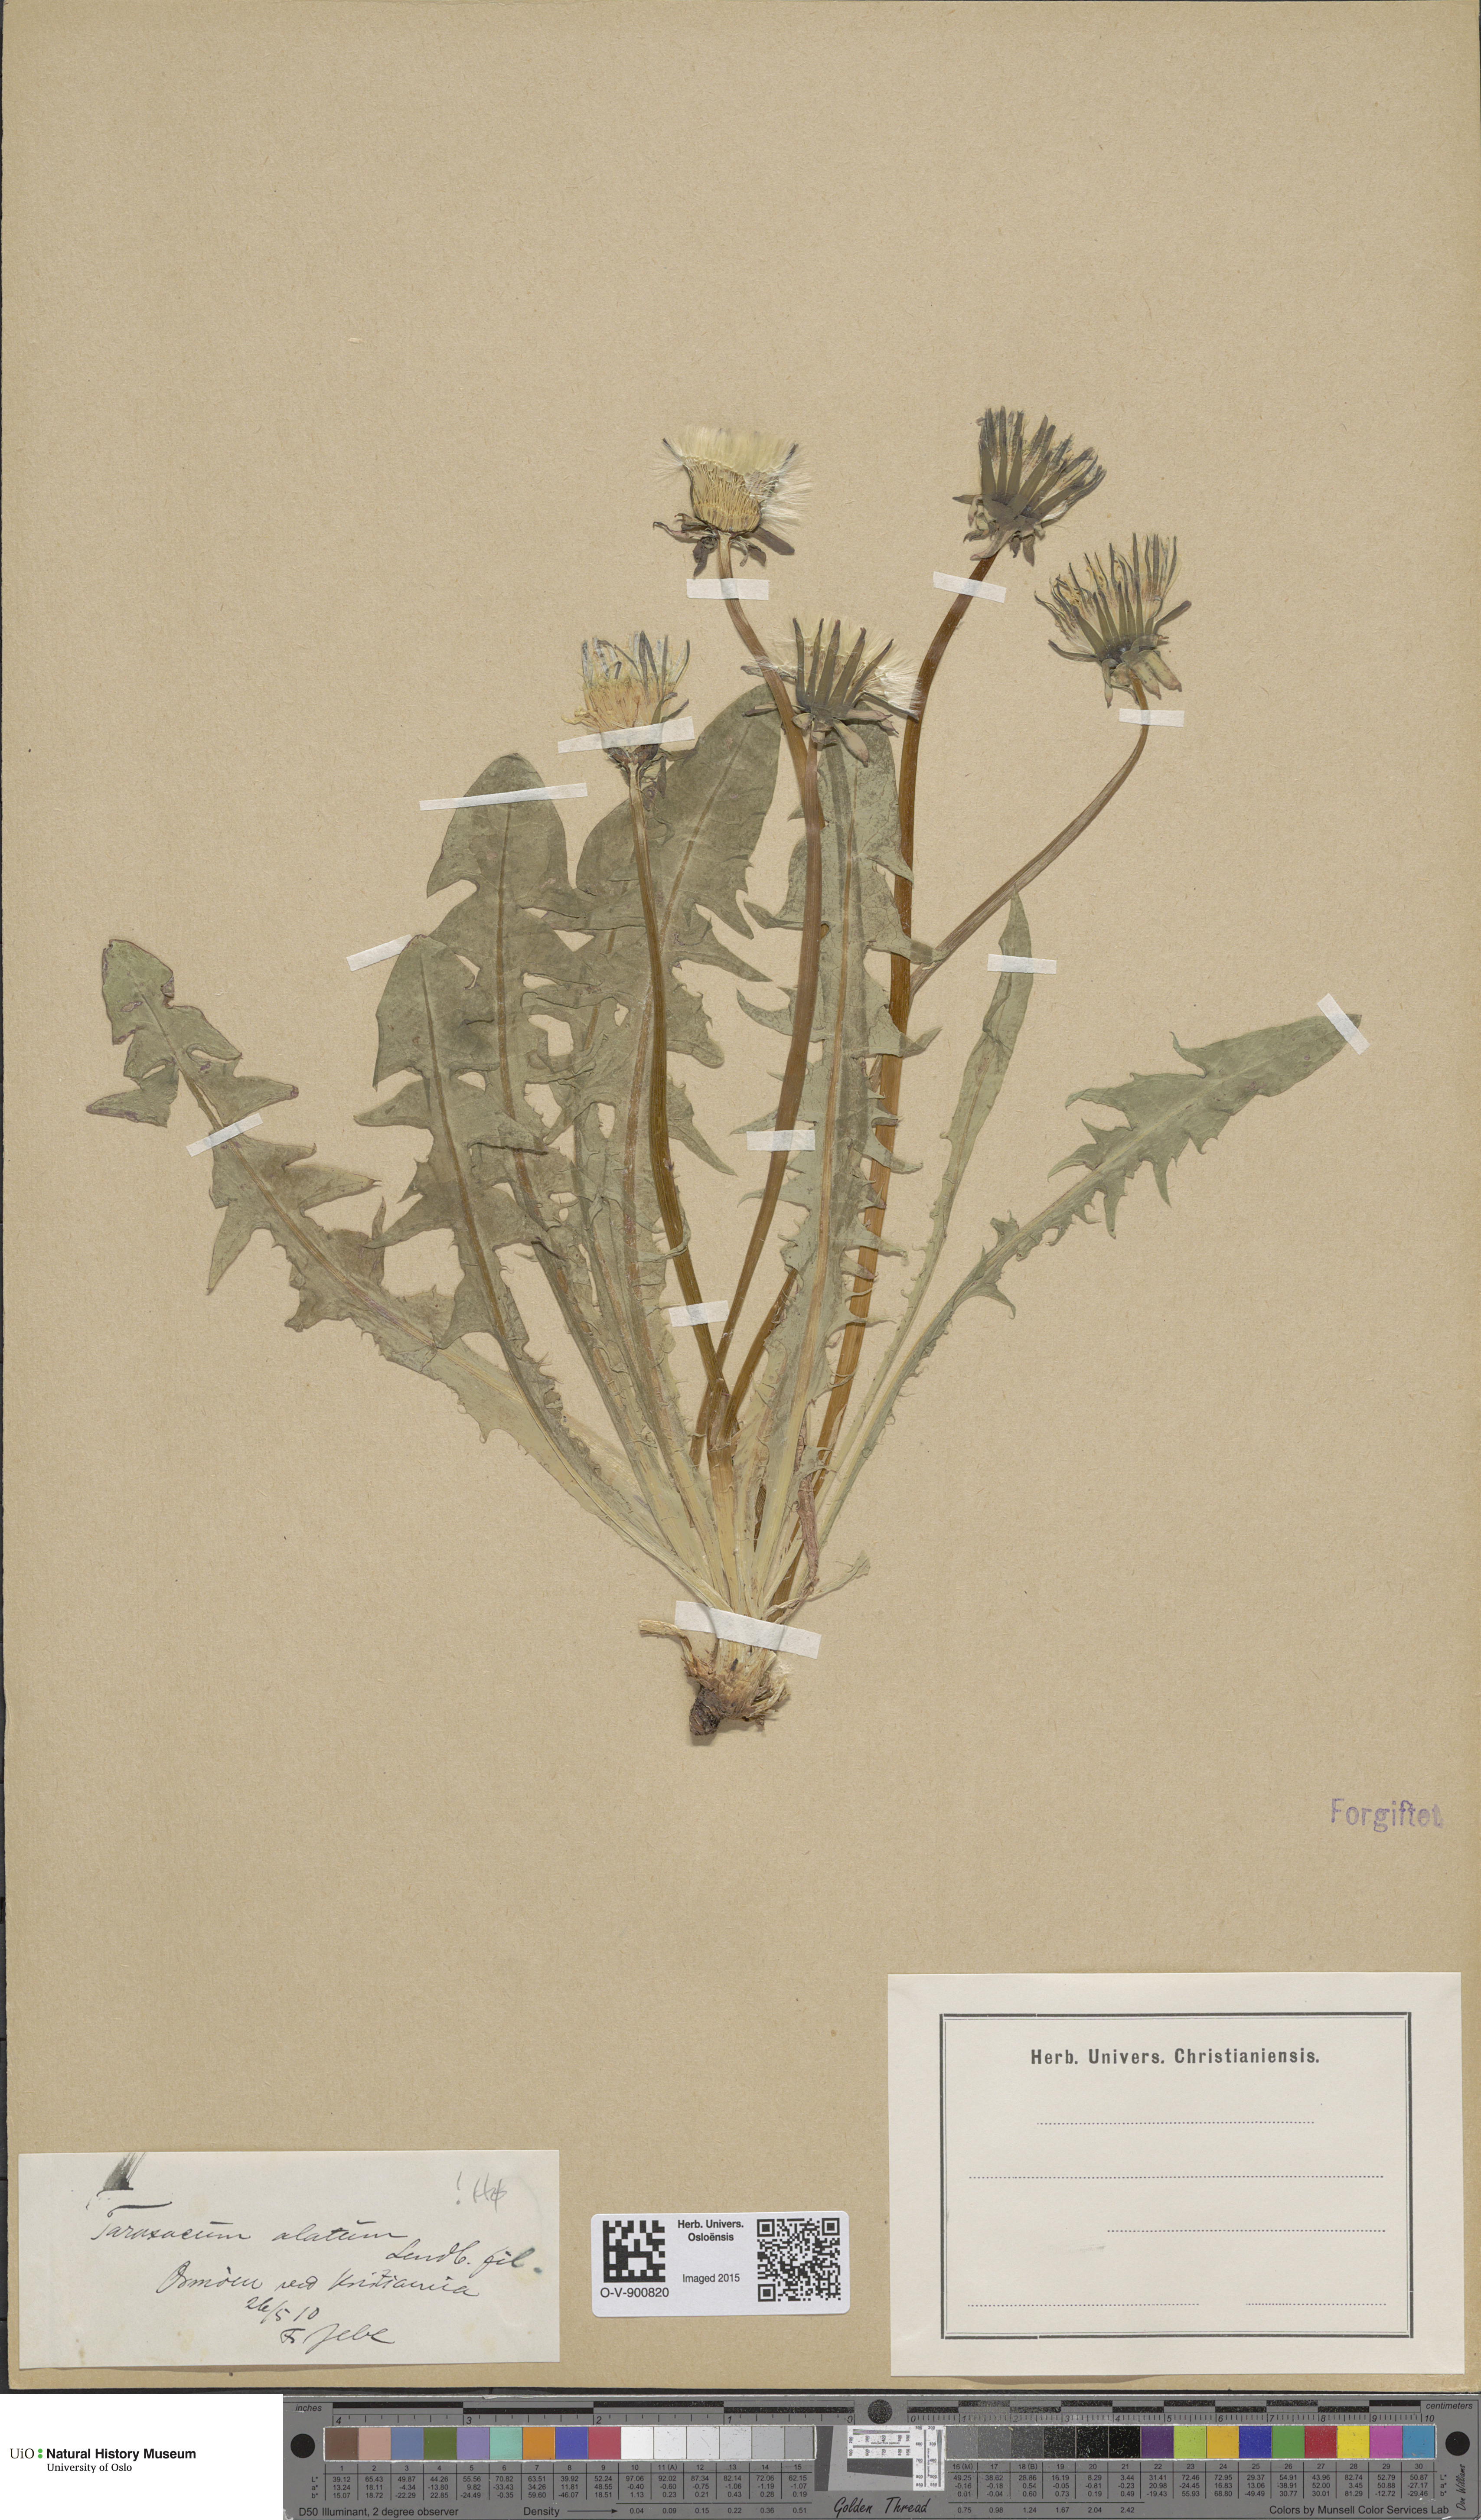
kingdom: Plantae
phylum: Tracheophyta
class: Magnoliopsida
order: Asterales
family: Asteraceae
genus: Taraxacum
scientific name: Taraxacum alatum
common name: Green dandelion
